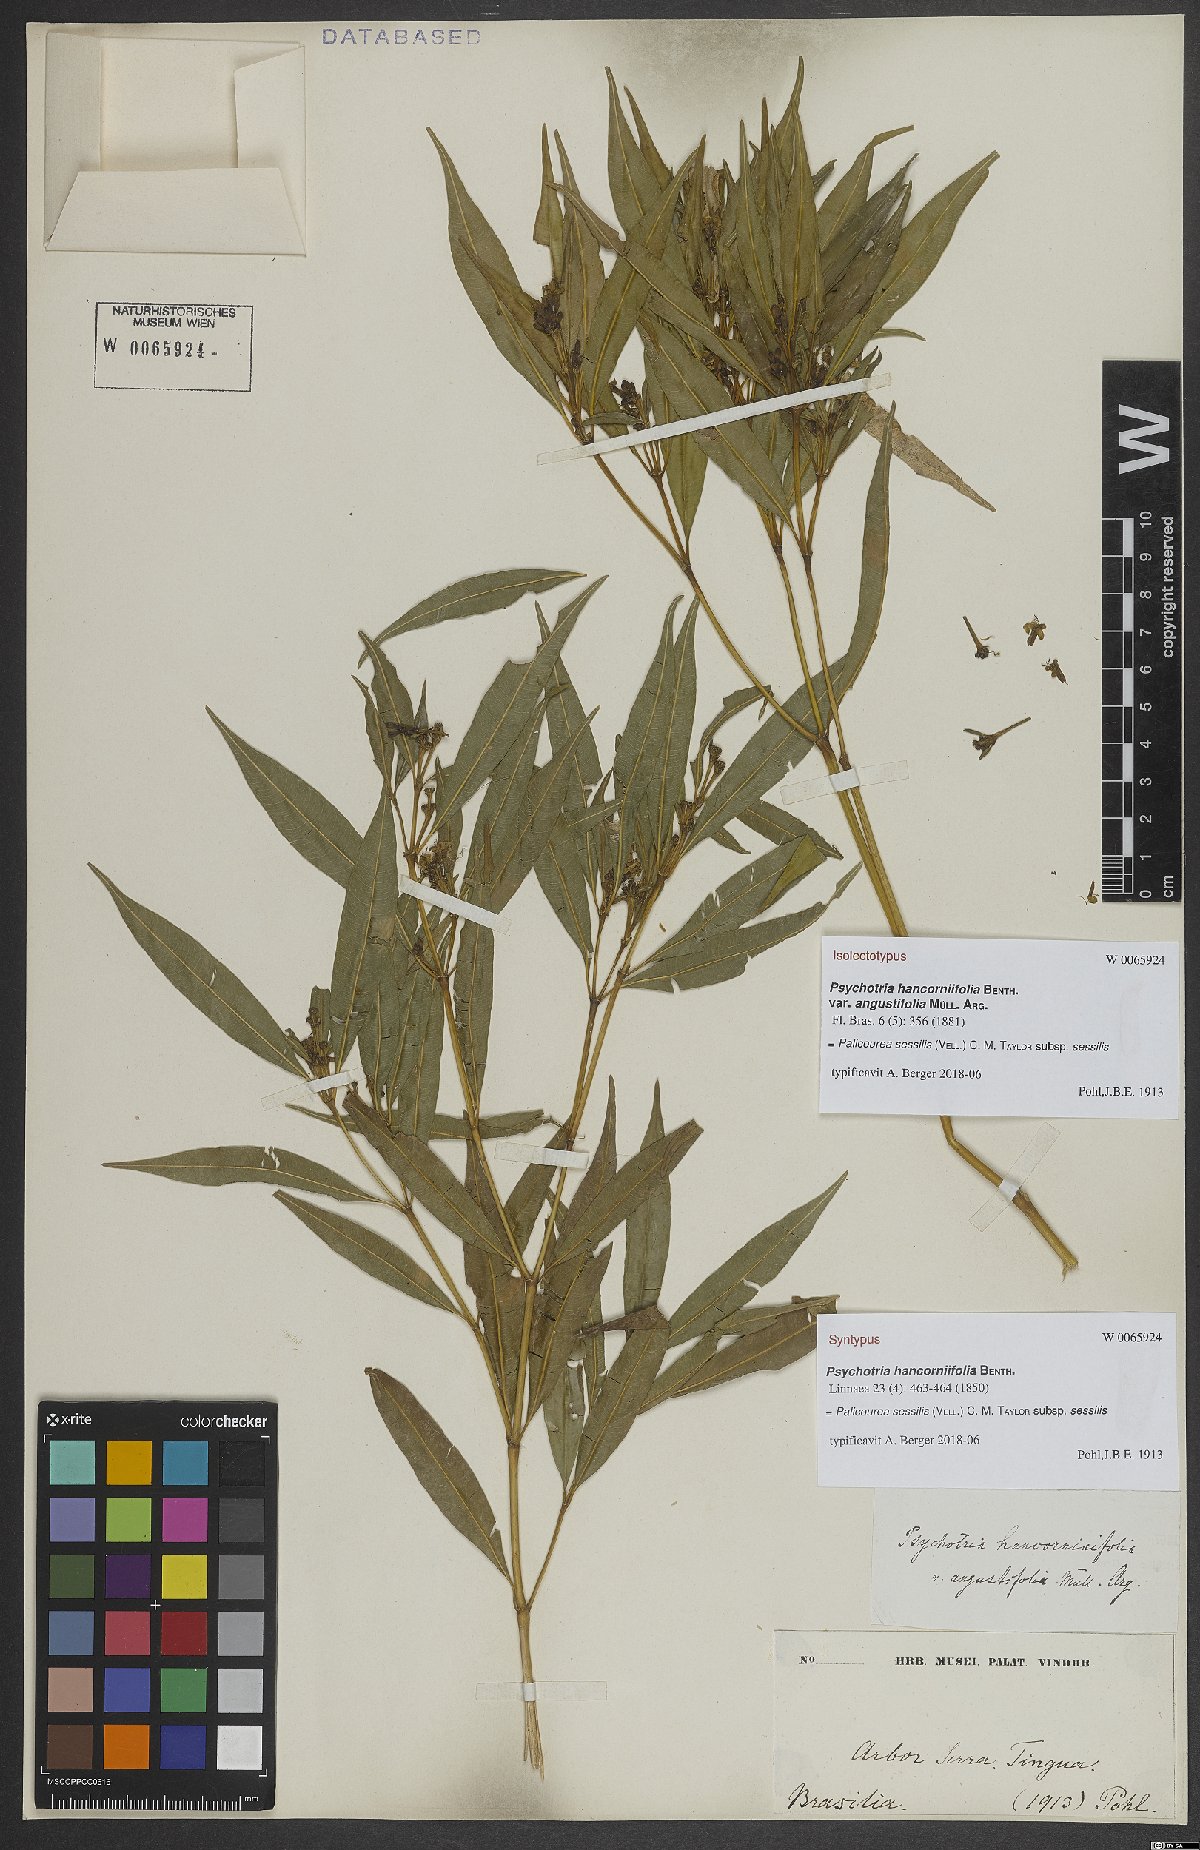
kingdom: Plantae
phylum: Tracheophyta
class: Magnoliopsida
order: Gentianales
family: Rubiaceae
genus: Palicourea
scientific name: Palicourea sessilis
